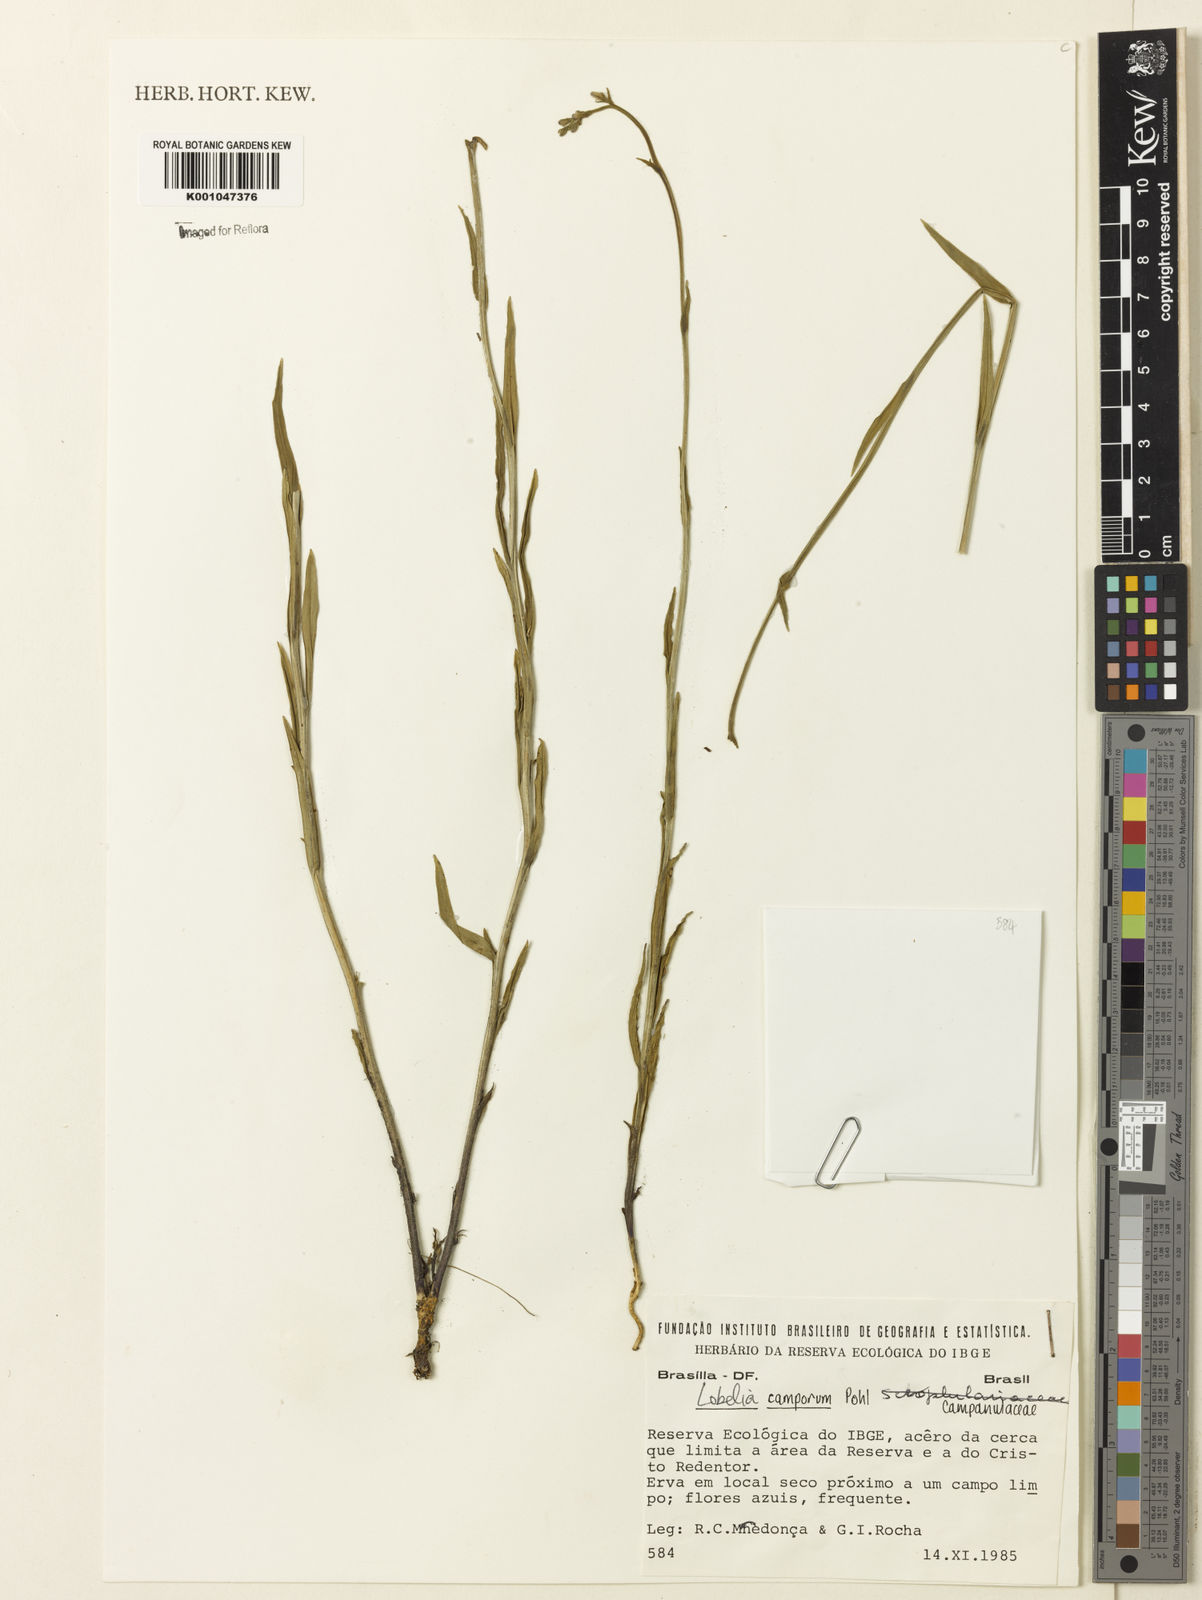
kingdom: Plantae
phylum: Tracheophyta
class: Magnoliopsida
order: Asterales
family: Campanulaceae
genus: Lobelia
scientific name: Lobelia camporum
